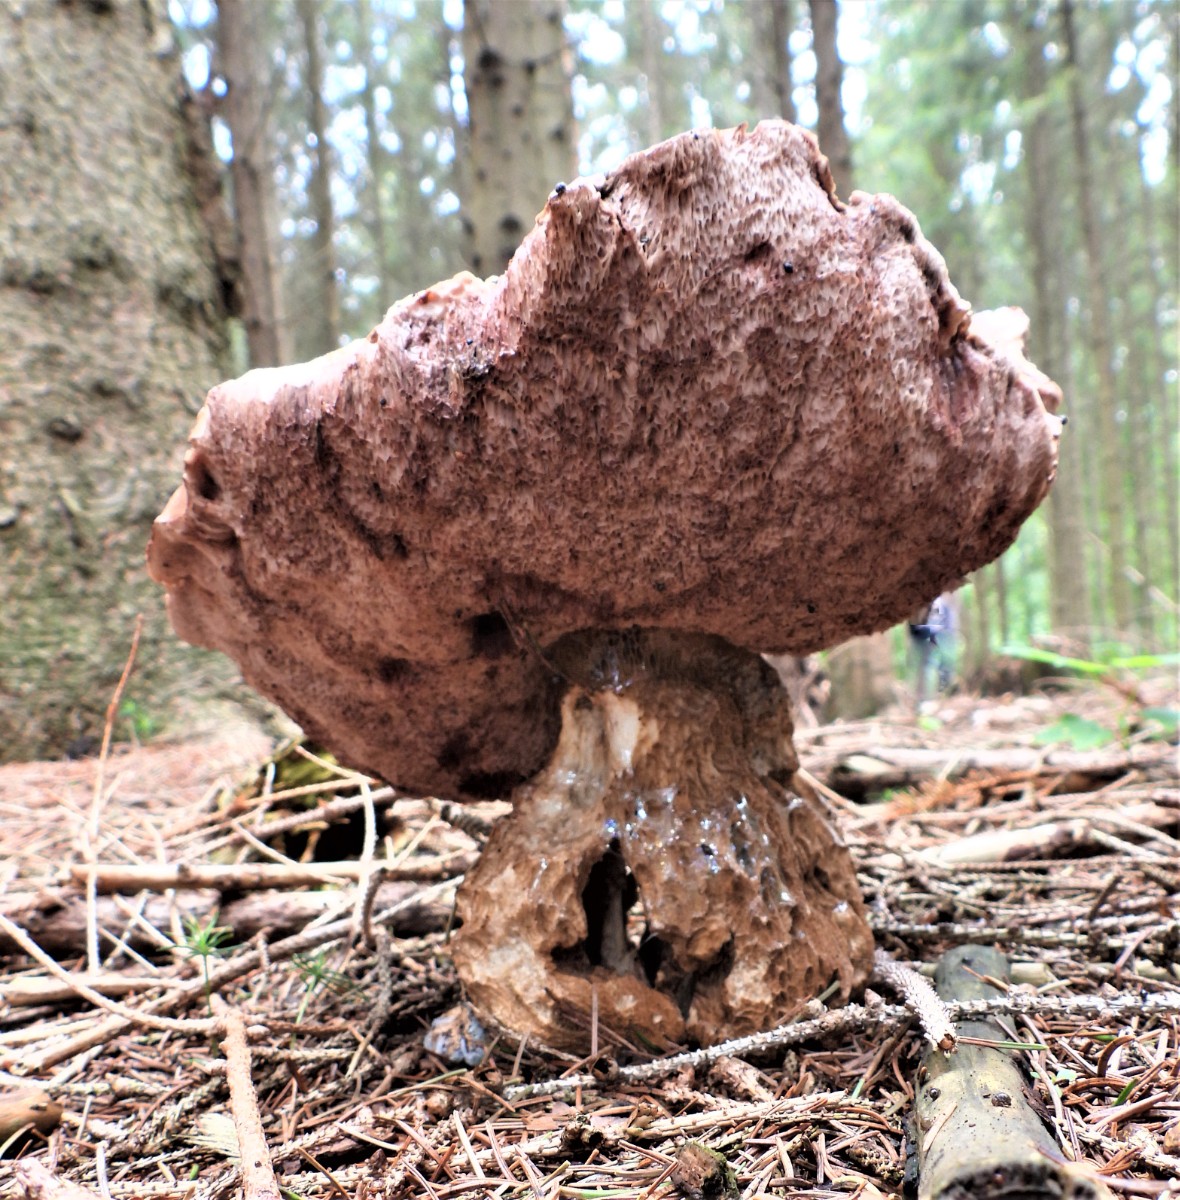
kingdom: Fungi
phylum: Basidiomycota
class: Agaricomycetes
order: Boletales
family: Boletaceae
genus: Tylopilus
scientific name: Tylopilus felleus
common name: galderørhat
